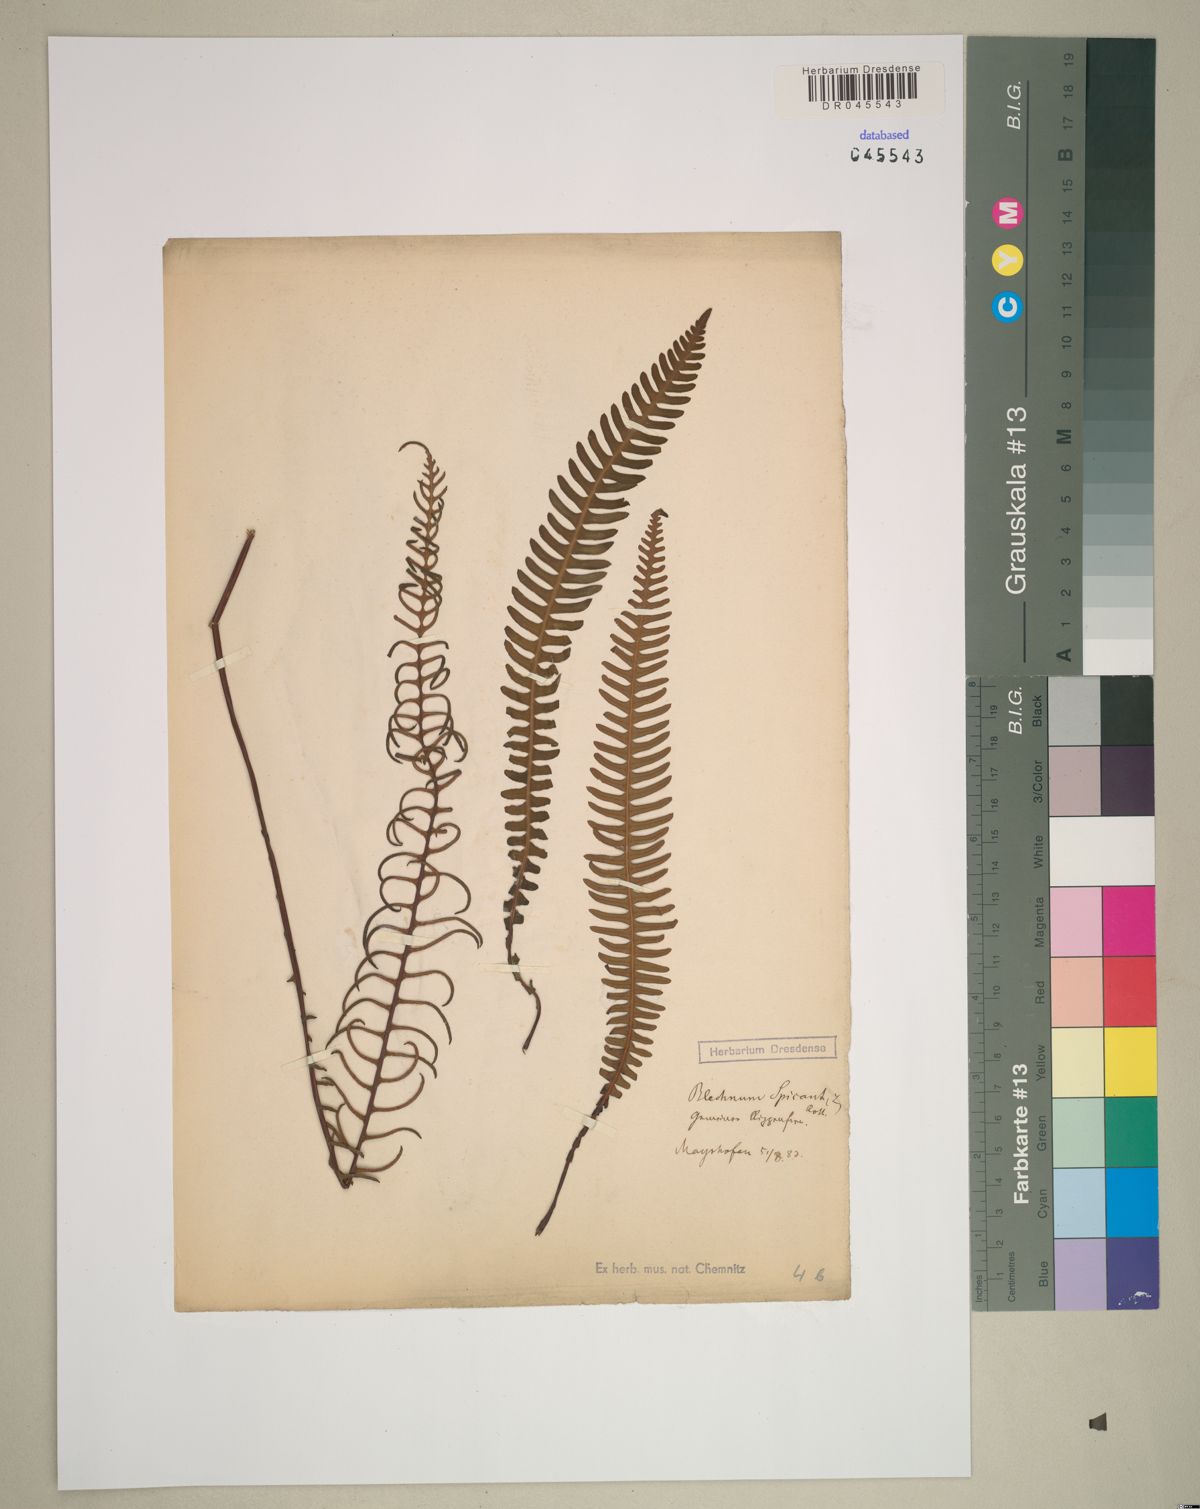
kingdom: Plantae
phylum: Tracheophyta
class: Polypodiopsida
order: Polypodiales
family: Blechnaceae
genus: Struthiopteris
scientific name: Struthiopteris spicant
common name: Deer fern
